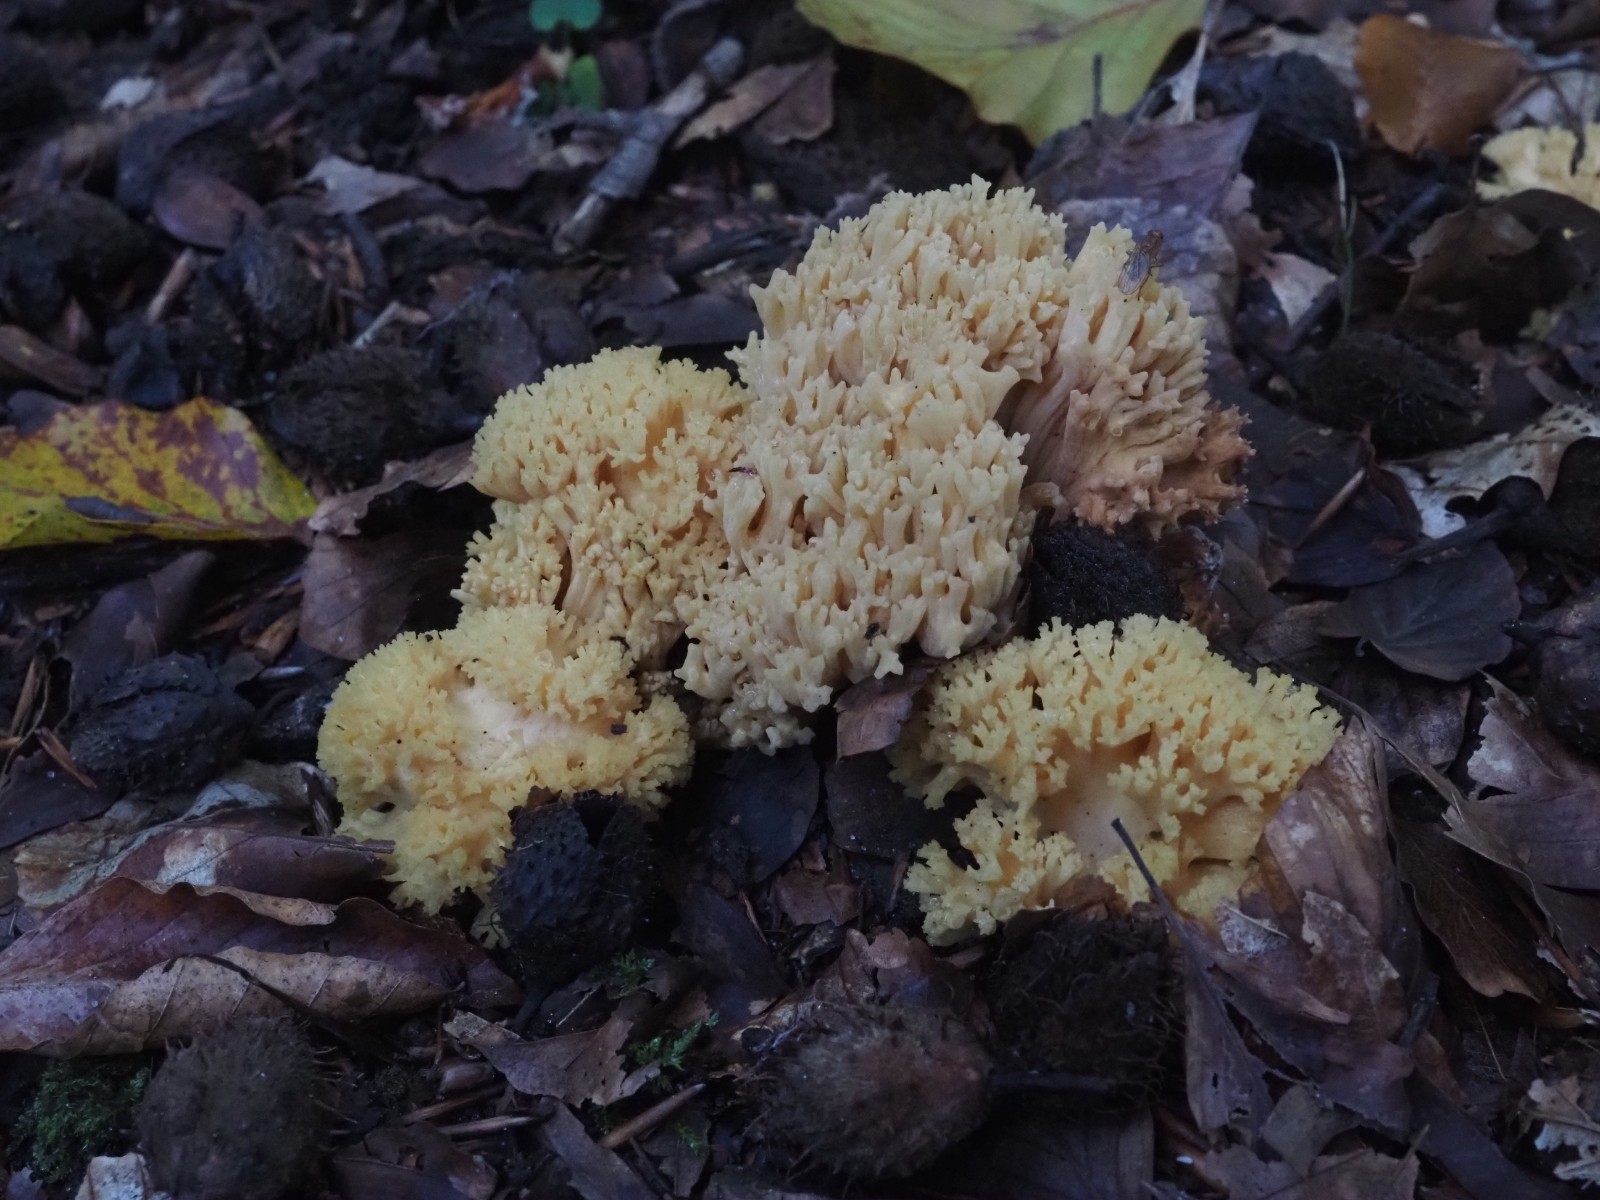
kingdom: Fungi
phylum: Basidiomycota
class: Agaricomycetes
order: Gomphales
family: Gomphaceae
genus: Ramaria
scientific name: Ramaria krieglsteineri
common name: smalsporet koralsvamp
